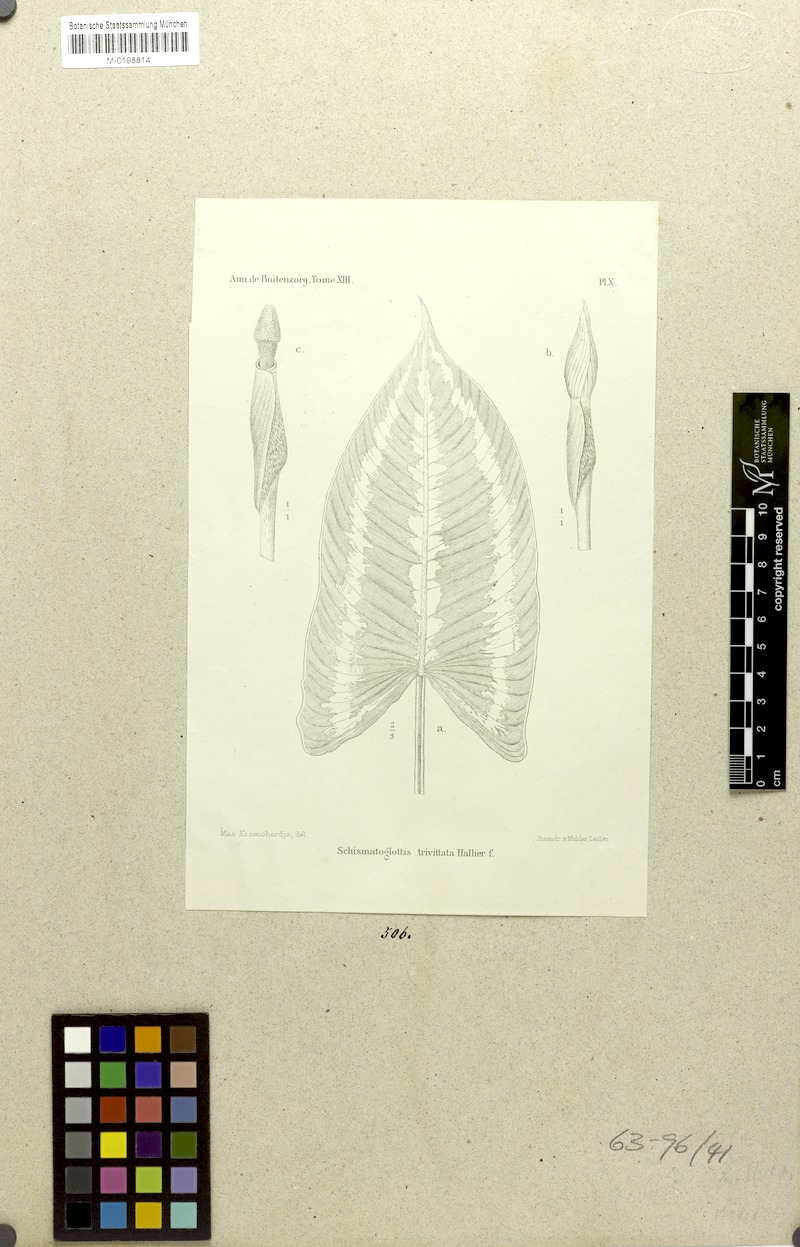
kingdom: Plantae
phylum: Tracheophyta
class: Liliopsida
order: Alismatales
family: Araceae
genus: Schismatoglottis
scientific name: Schismatoglottis trivittata
